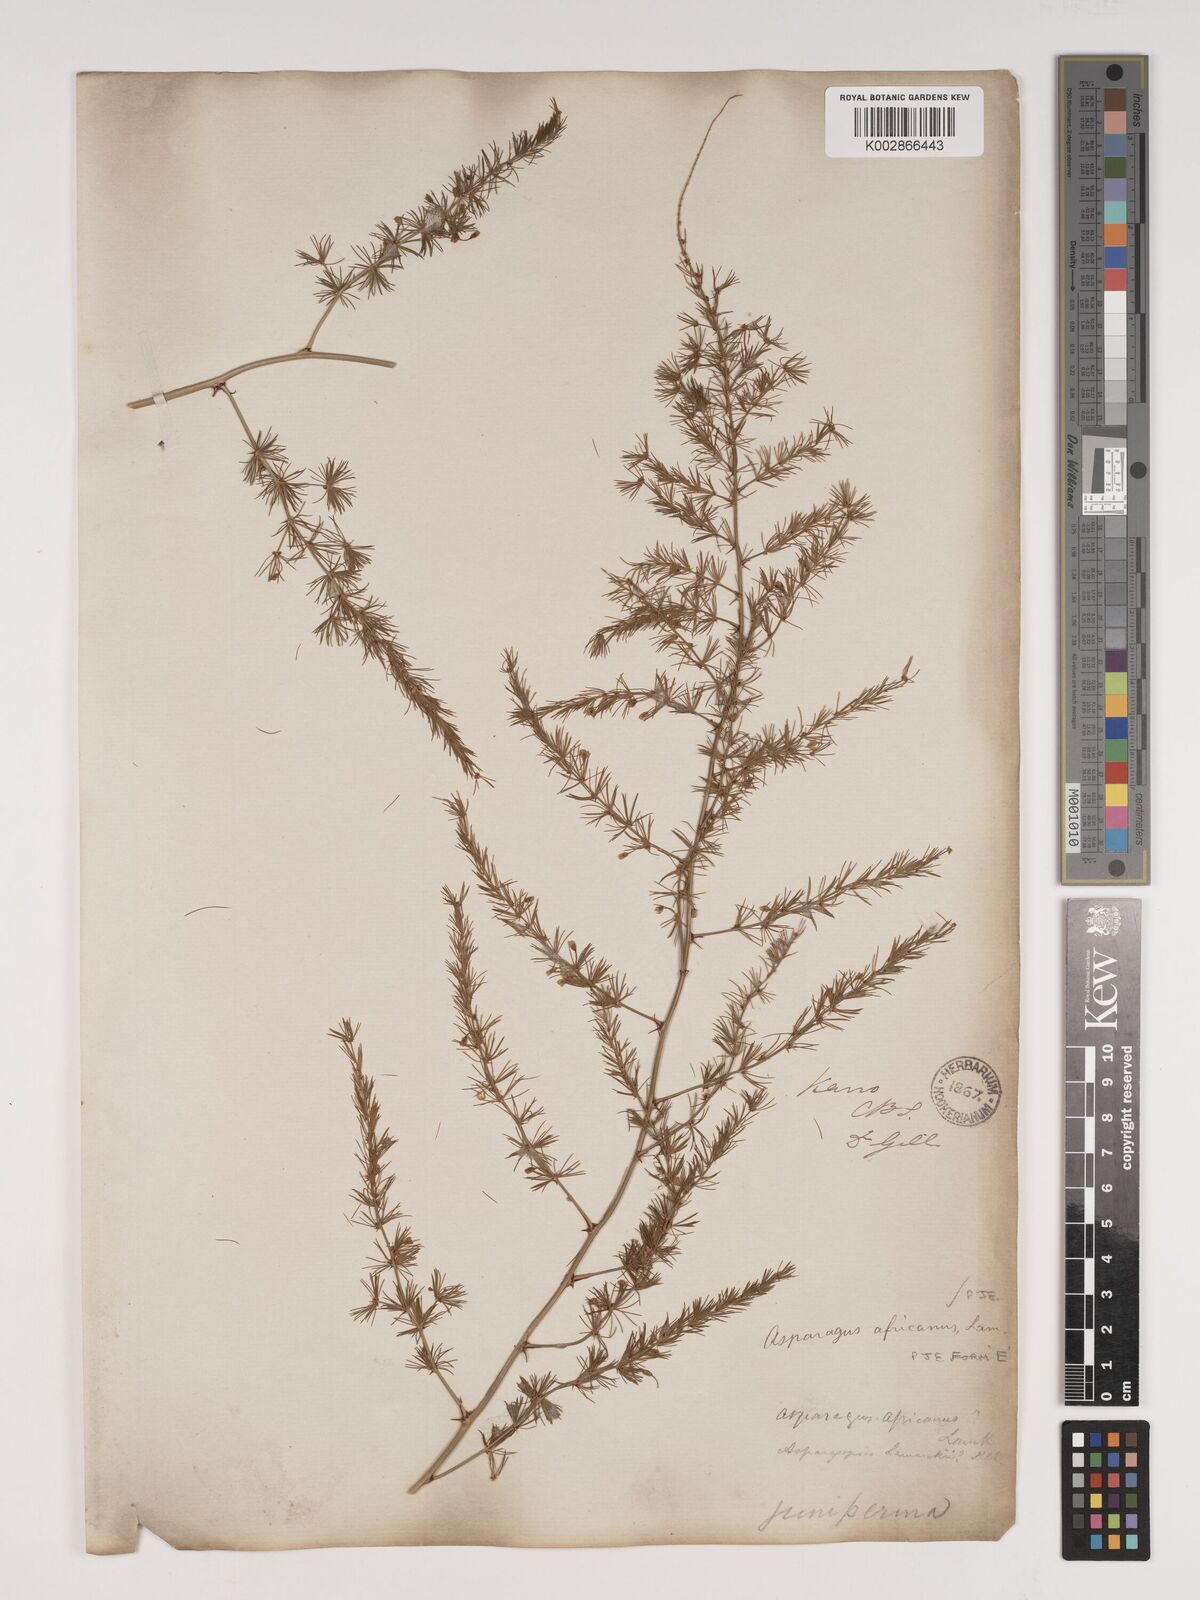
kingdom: Plantae
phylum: Tracheophyta
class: Liliopsida
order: Asparagales
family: Asparagaceae
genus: Asparagus
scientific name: Asparagus africanus
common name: Asparagus-fern
